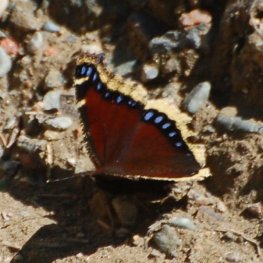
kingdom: Animalia
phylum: Arthropoda
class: Insecta
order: Lepidoptera
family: Nymphalidae
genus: Nymphalis
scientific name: Nymphalis antiopa
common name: Mourning Cloak
